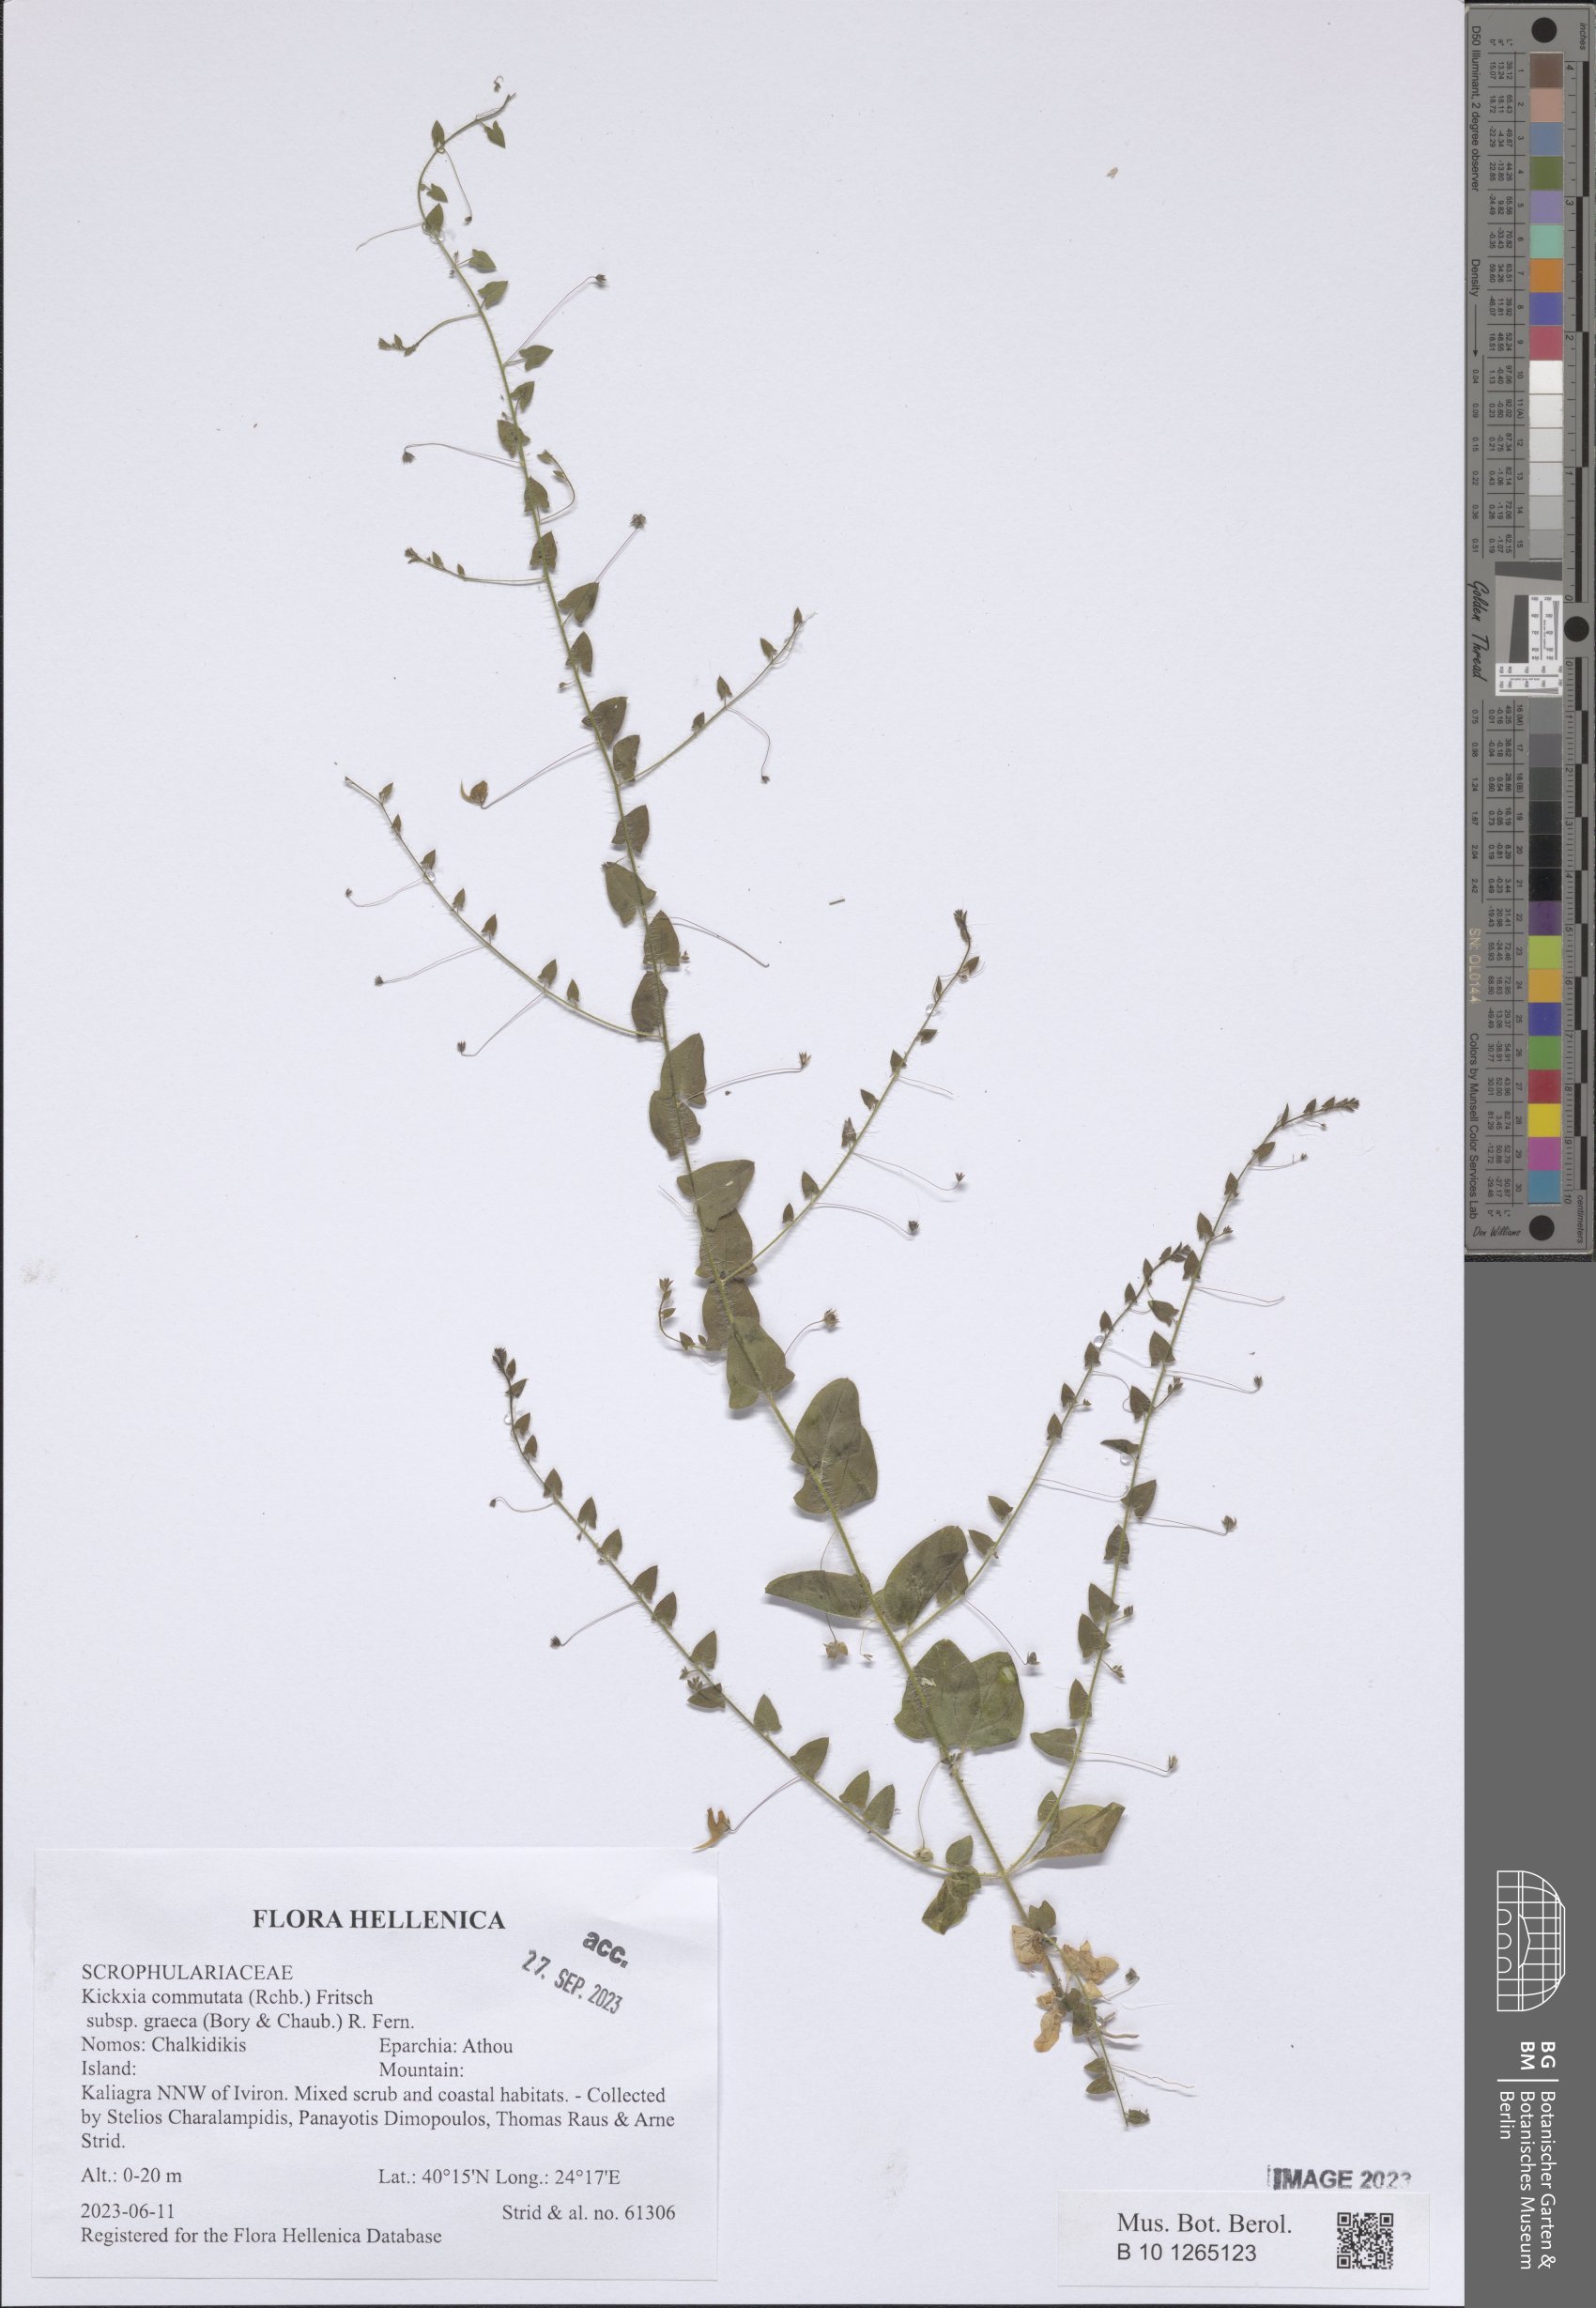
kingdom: Plantae
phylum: Tracheophyta
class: Magnoliopsida
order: Lamiales
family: Plantaginaceae
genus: Kickxia
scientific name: Kickxia commutata
